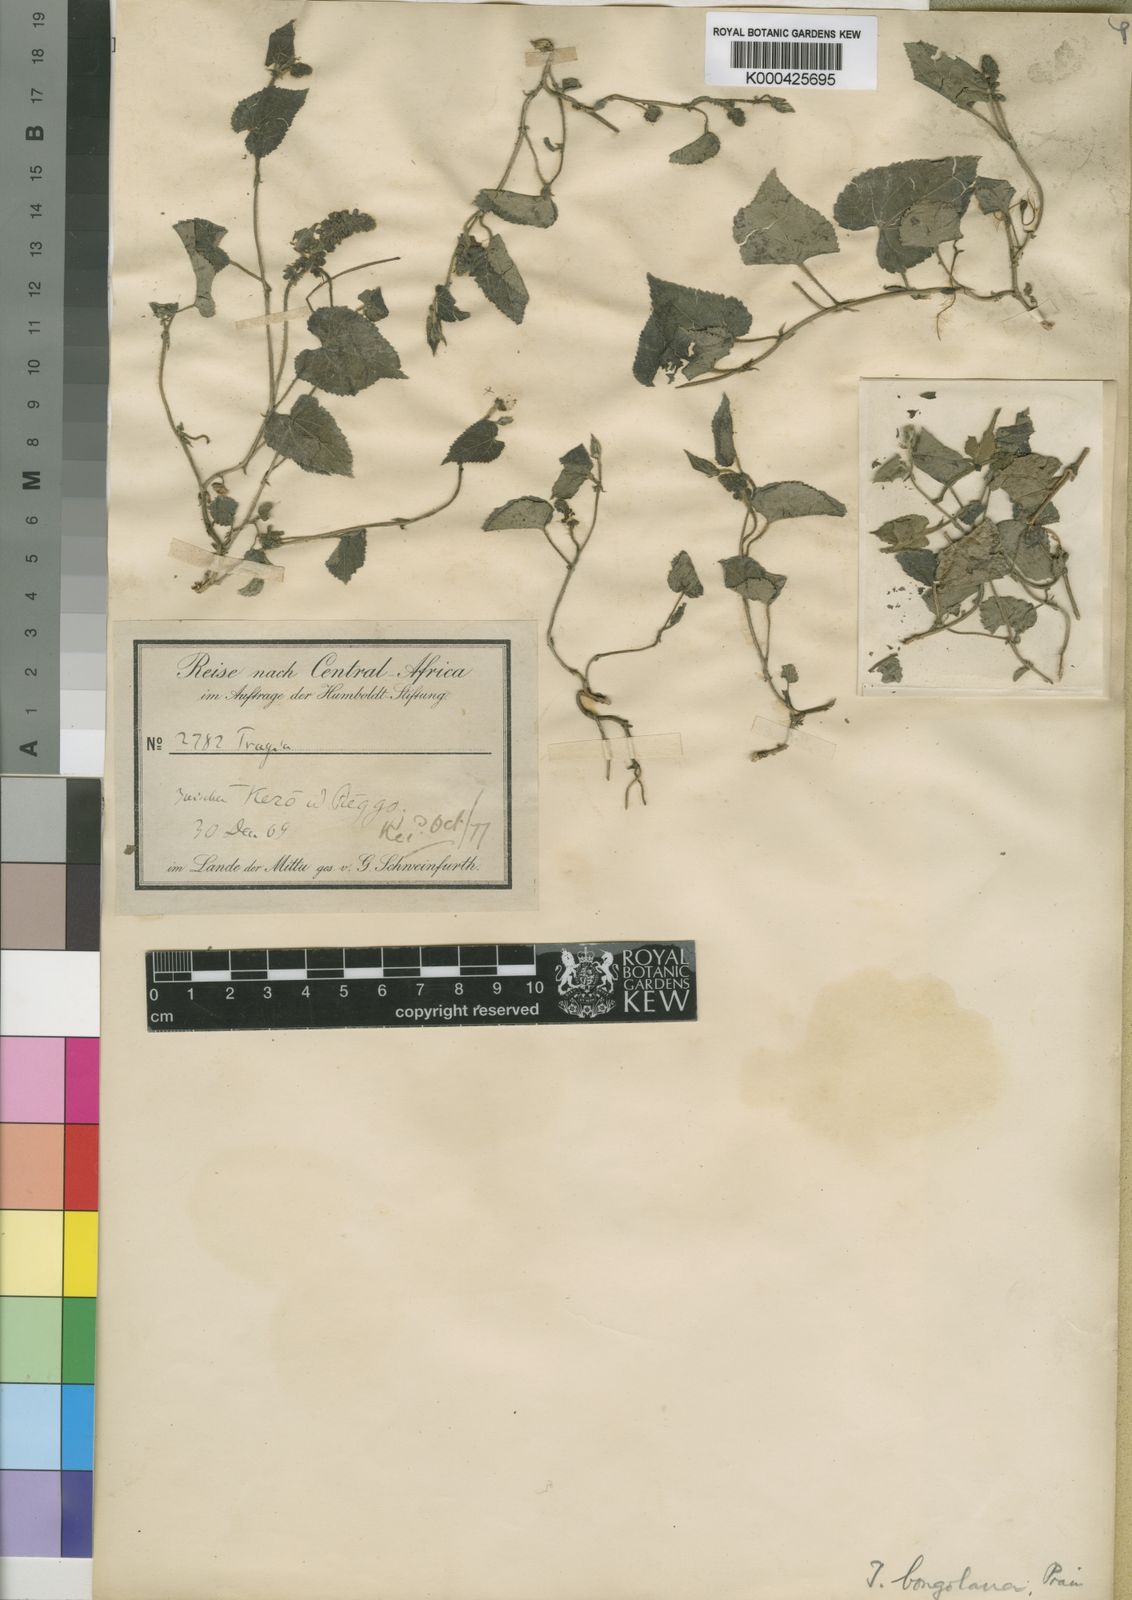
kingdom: Plantae
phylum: Tracheophyta
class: Magnoliopsida
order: Malpighiales
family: Euphorbiaceae
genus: Tragia
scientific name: Tragia bongolana
